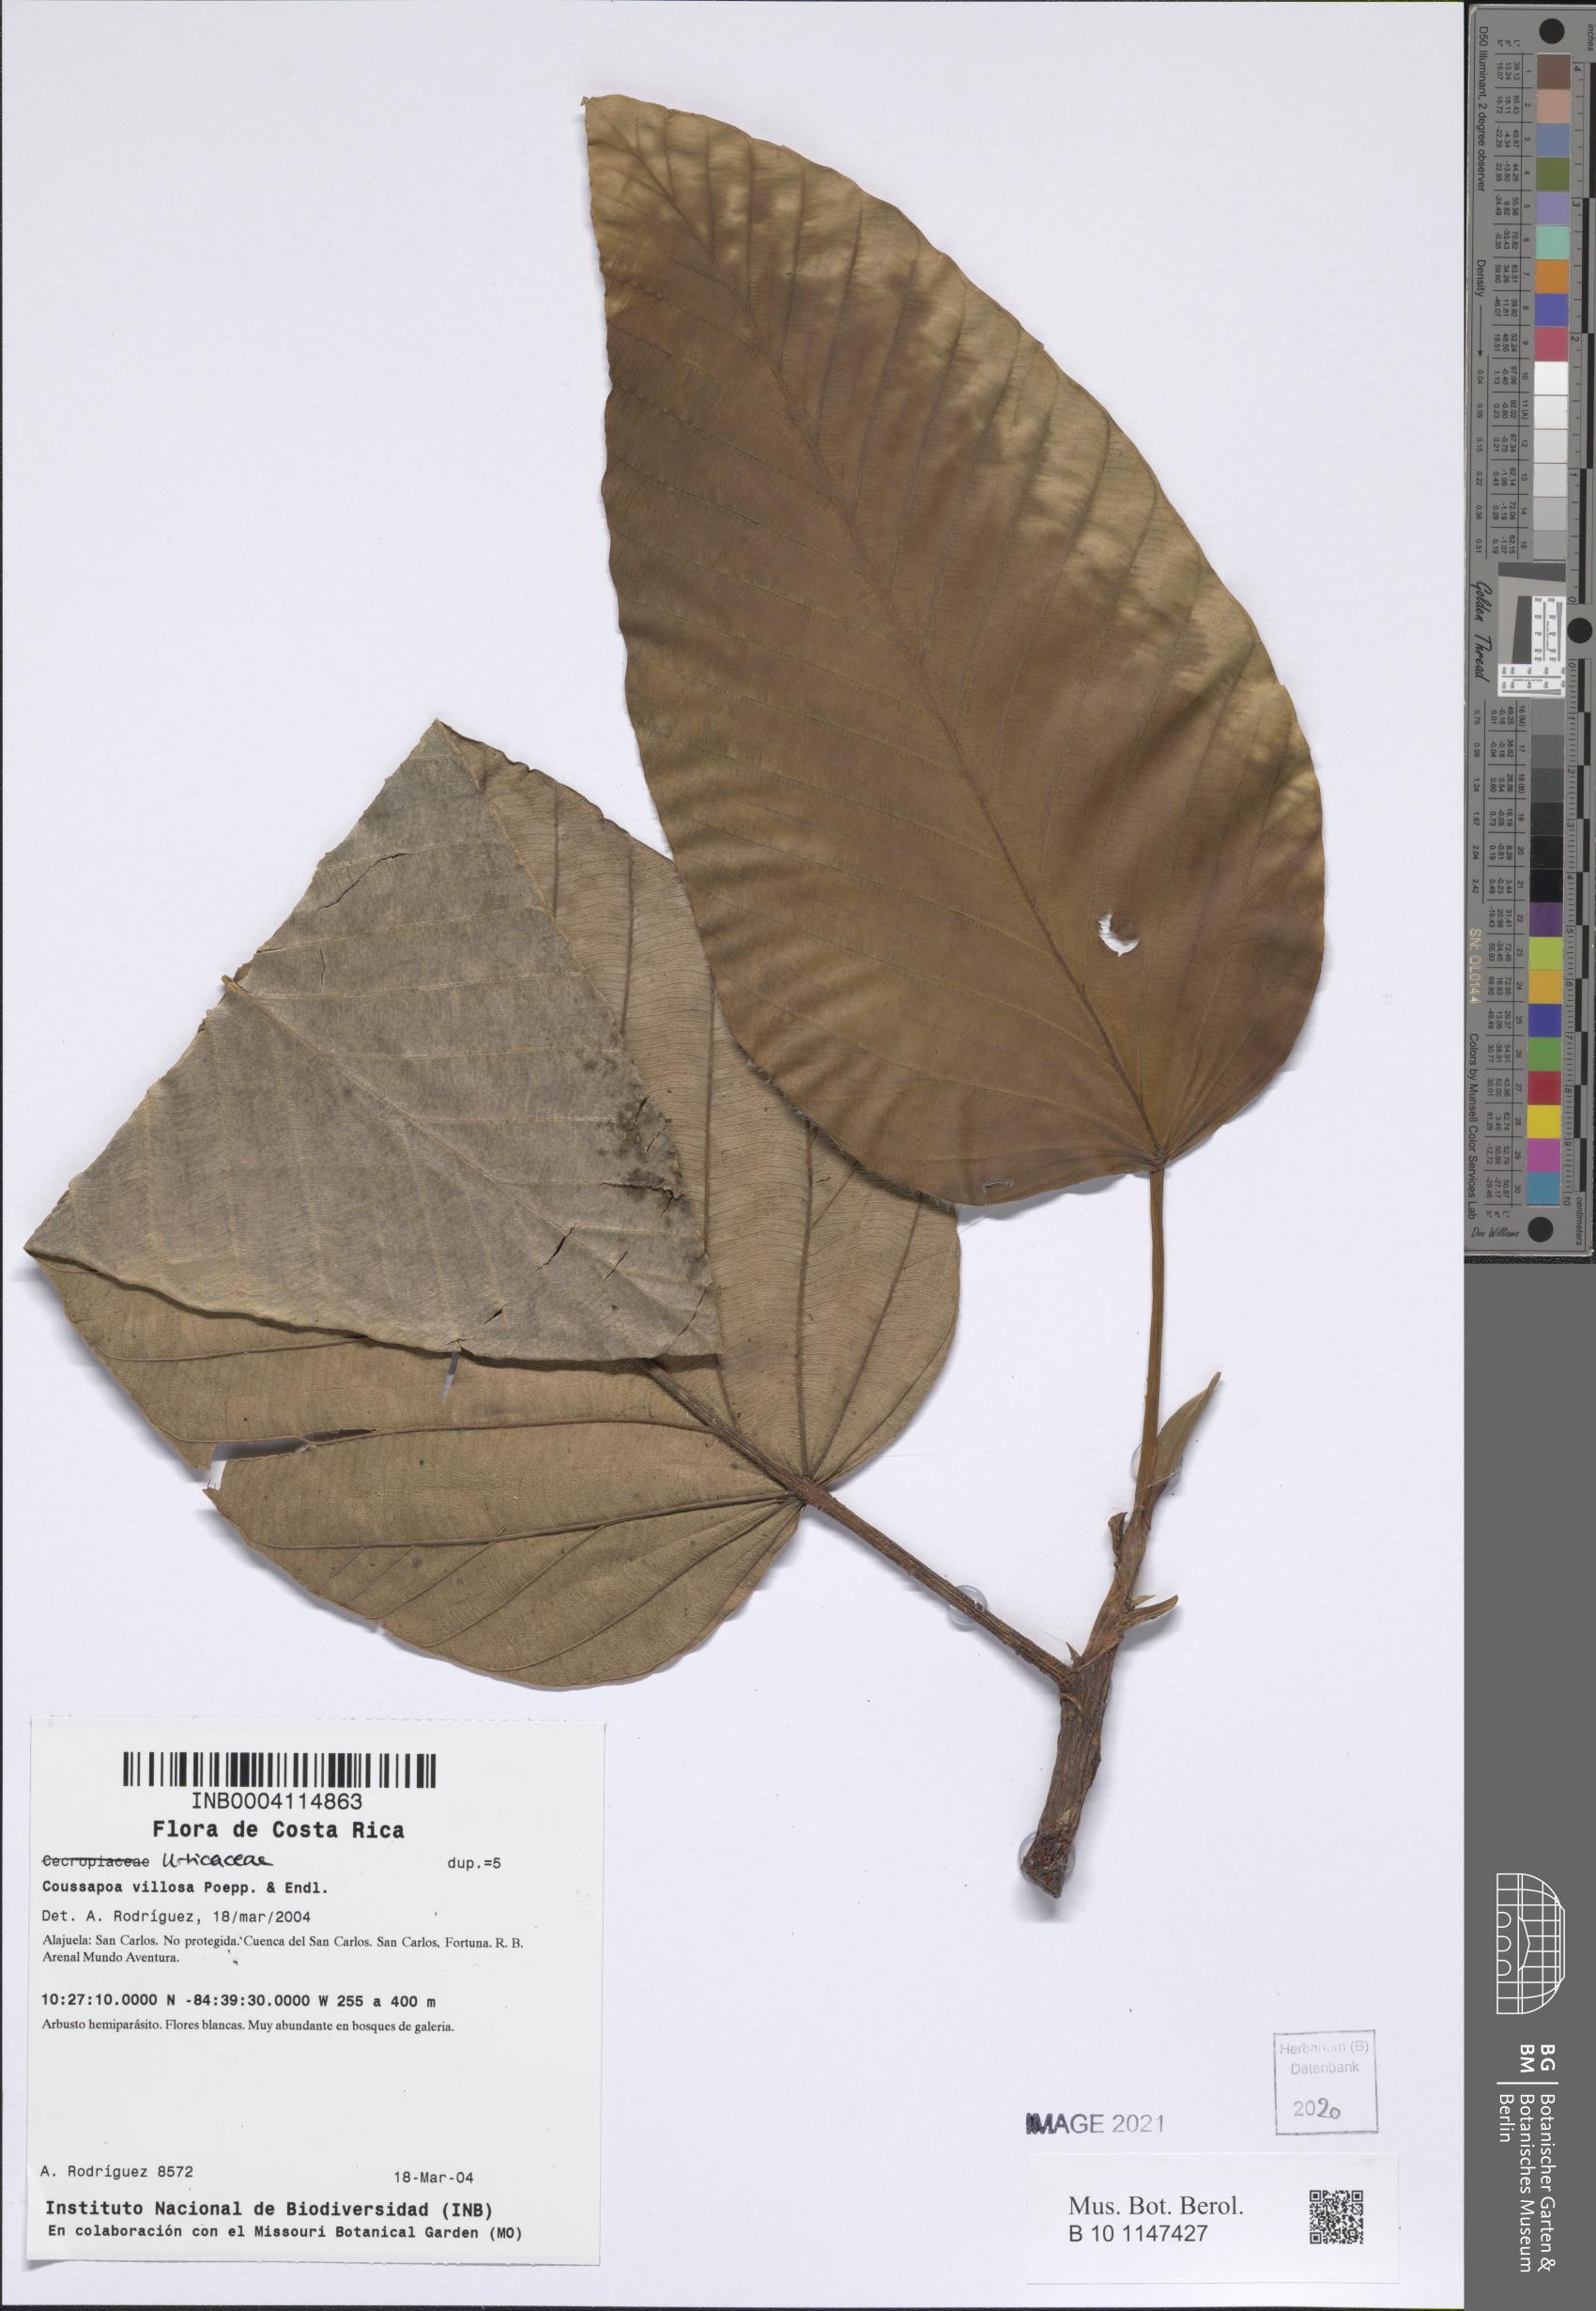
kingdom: Plantae
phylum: Tracheophyta
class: Magnoliopsida
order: Rosales
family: Urticaceae
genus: Coussapoa
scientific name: Coussapoa villosa
